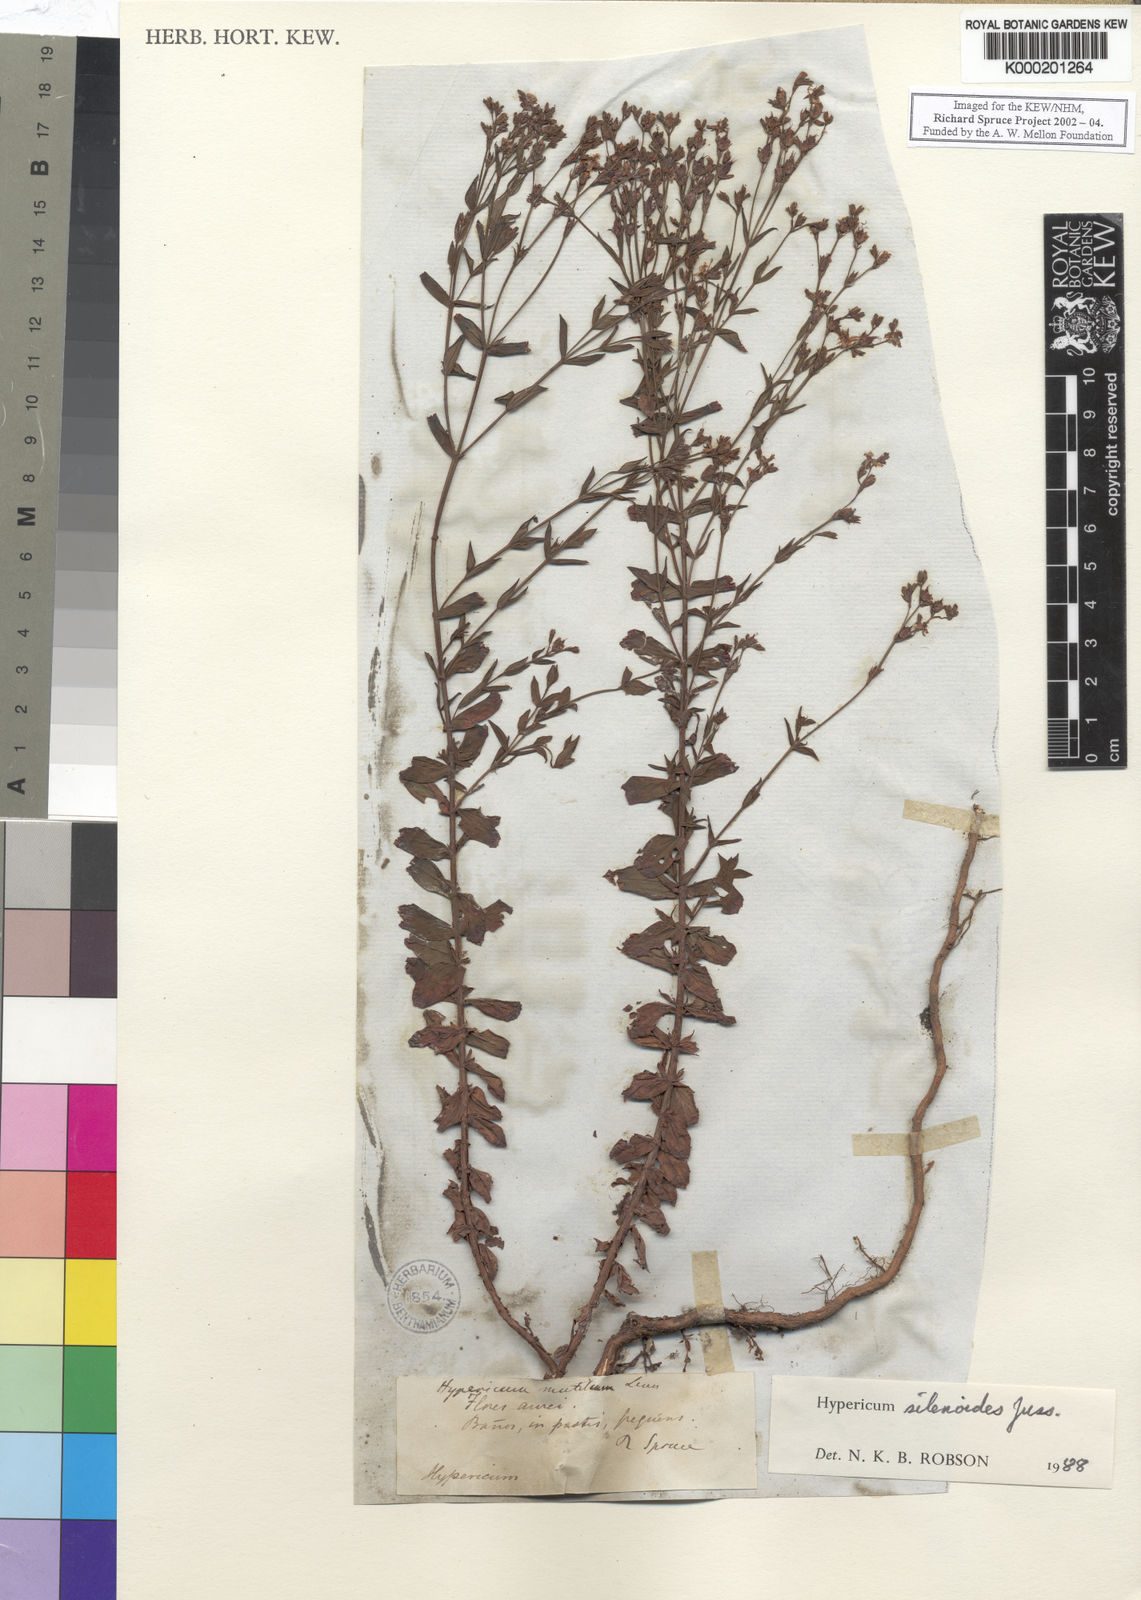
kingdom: Plantae
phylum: Tracheophyta
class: Magnoliopsida
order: Malpighiales
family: Hypericaceae
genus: Hypericum
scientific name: Hypericum silenoides
